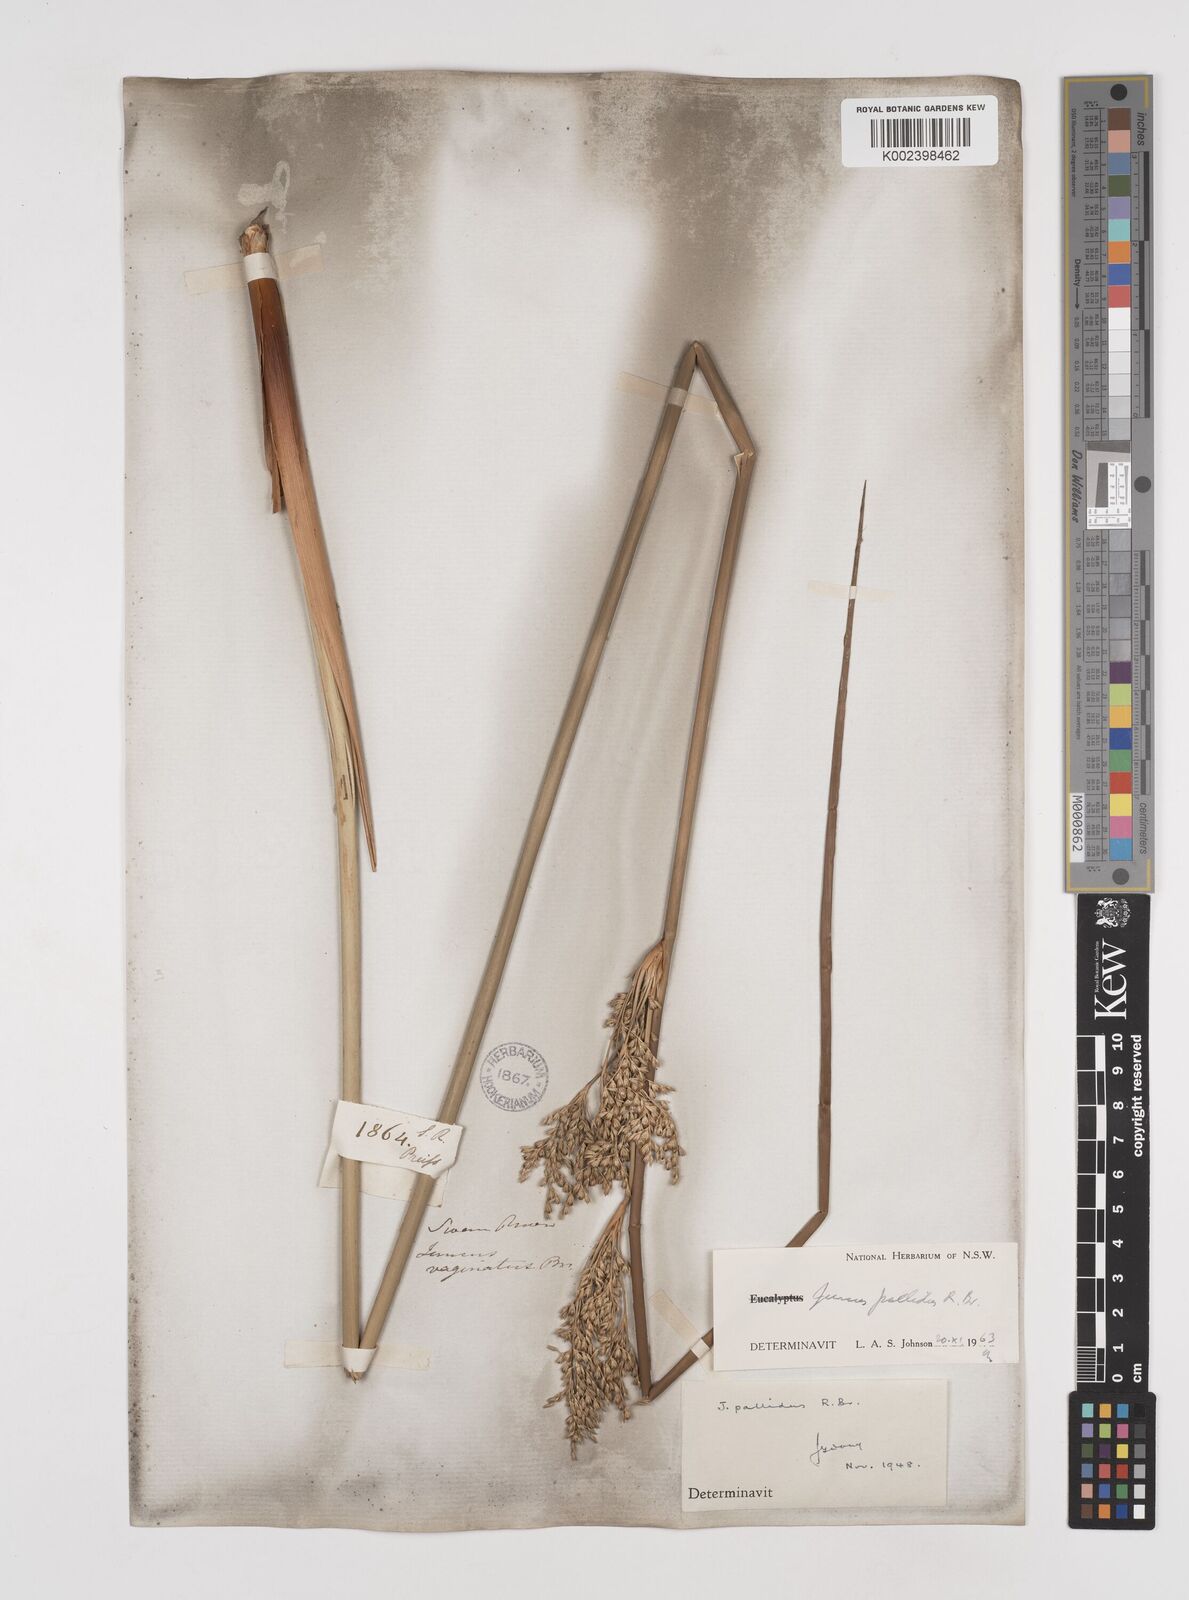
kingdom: Plantae
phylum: Tracheophyta
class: Liliopsida
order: Poales
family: Juncaceae
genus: Juncus
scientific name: Juncus pallidus
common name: Great soft-rush
